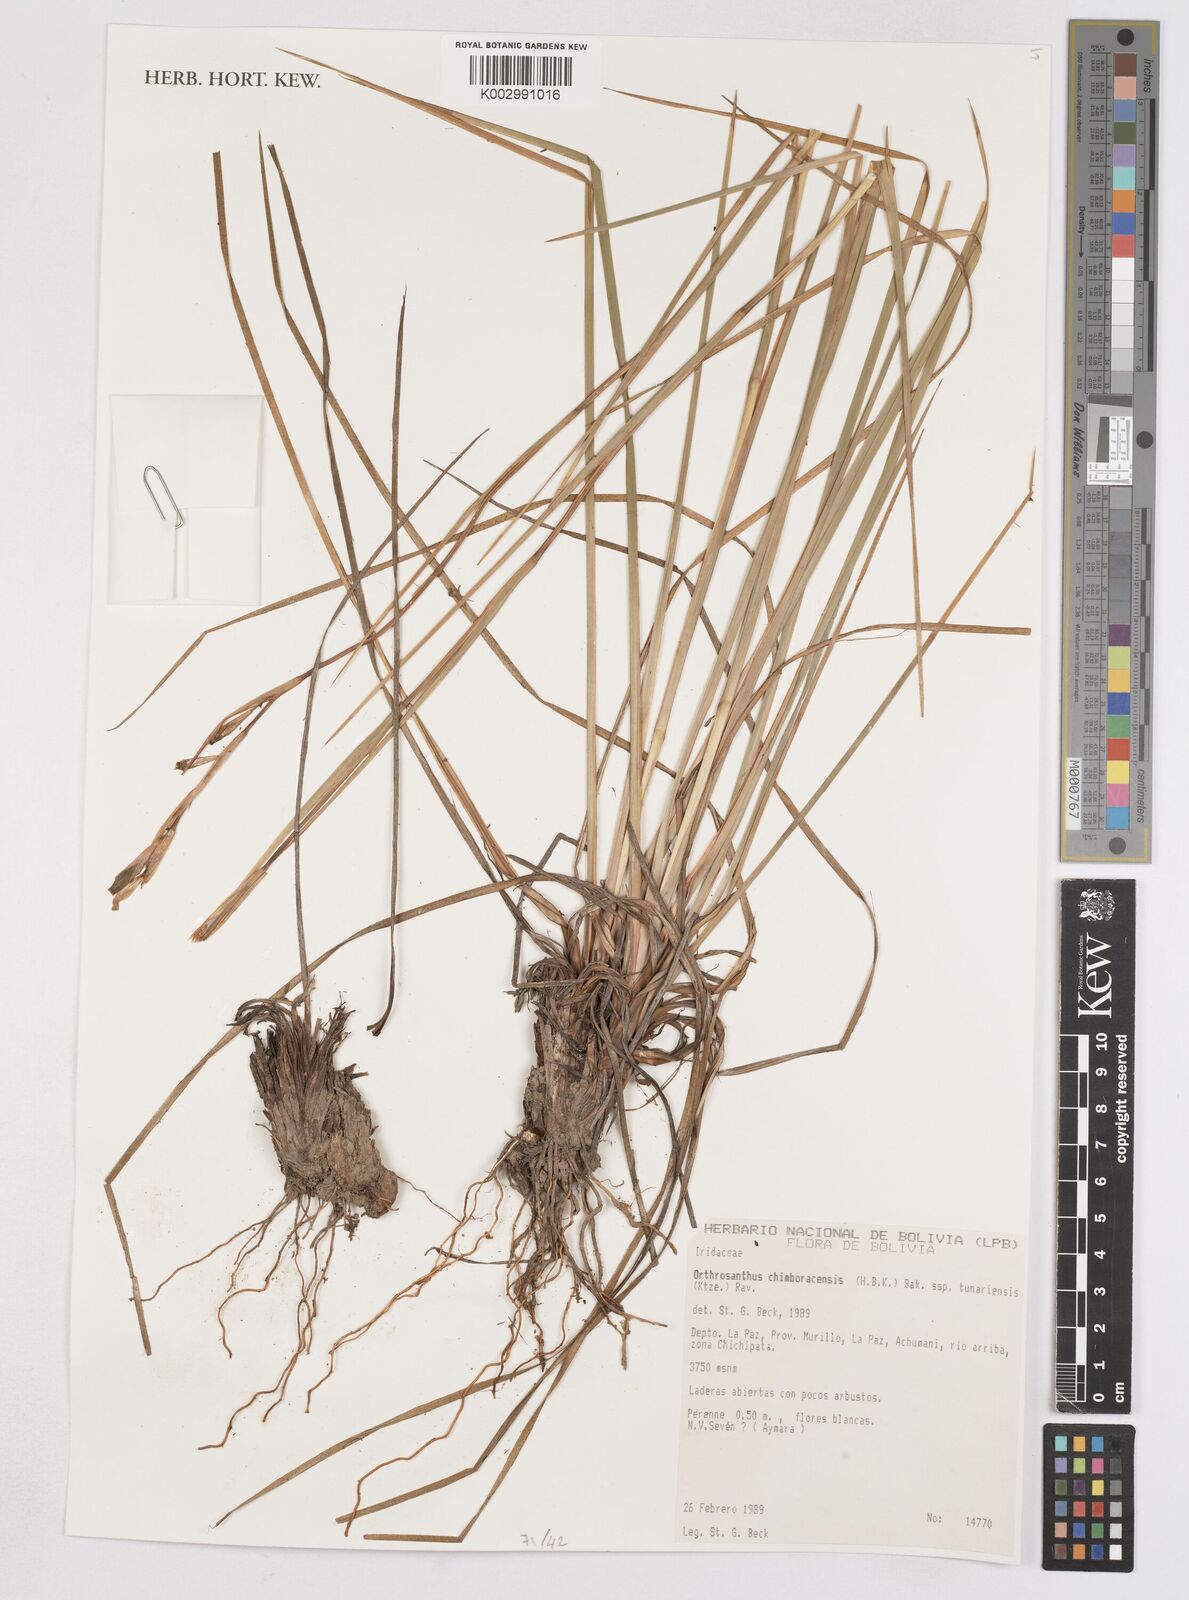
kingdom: Plantae
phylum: Tracheophyta
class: Liliopsida
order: Asparagales
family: Iridaceae
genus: Orthrosanthus
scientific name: Orthrosanthus chimboracensis
